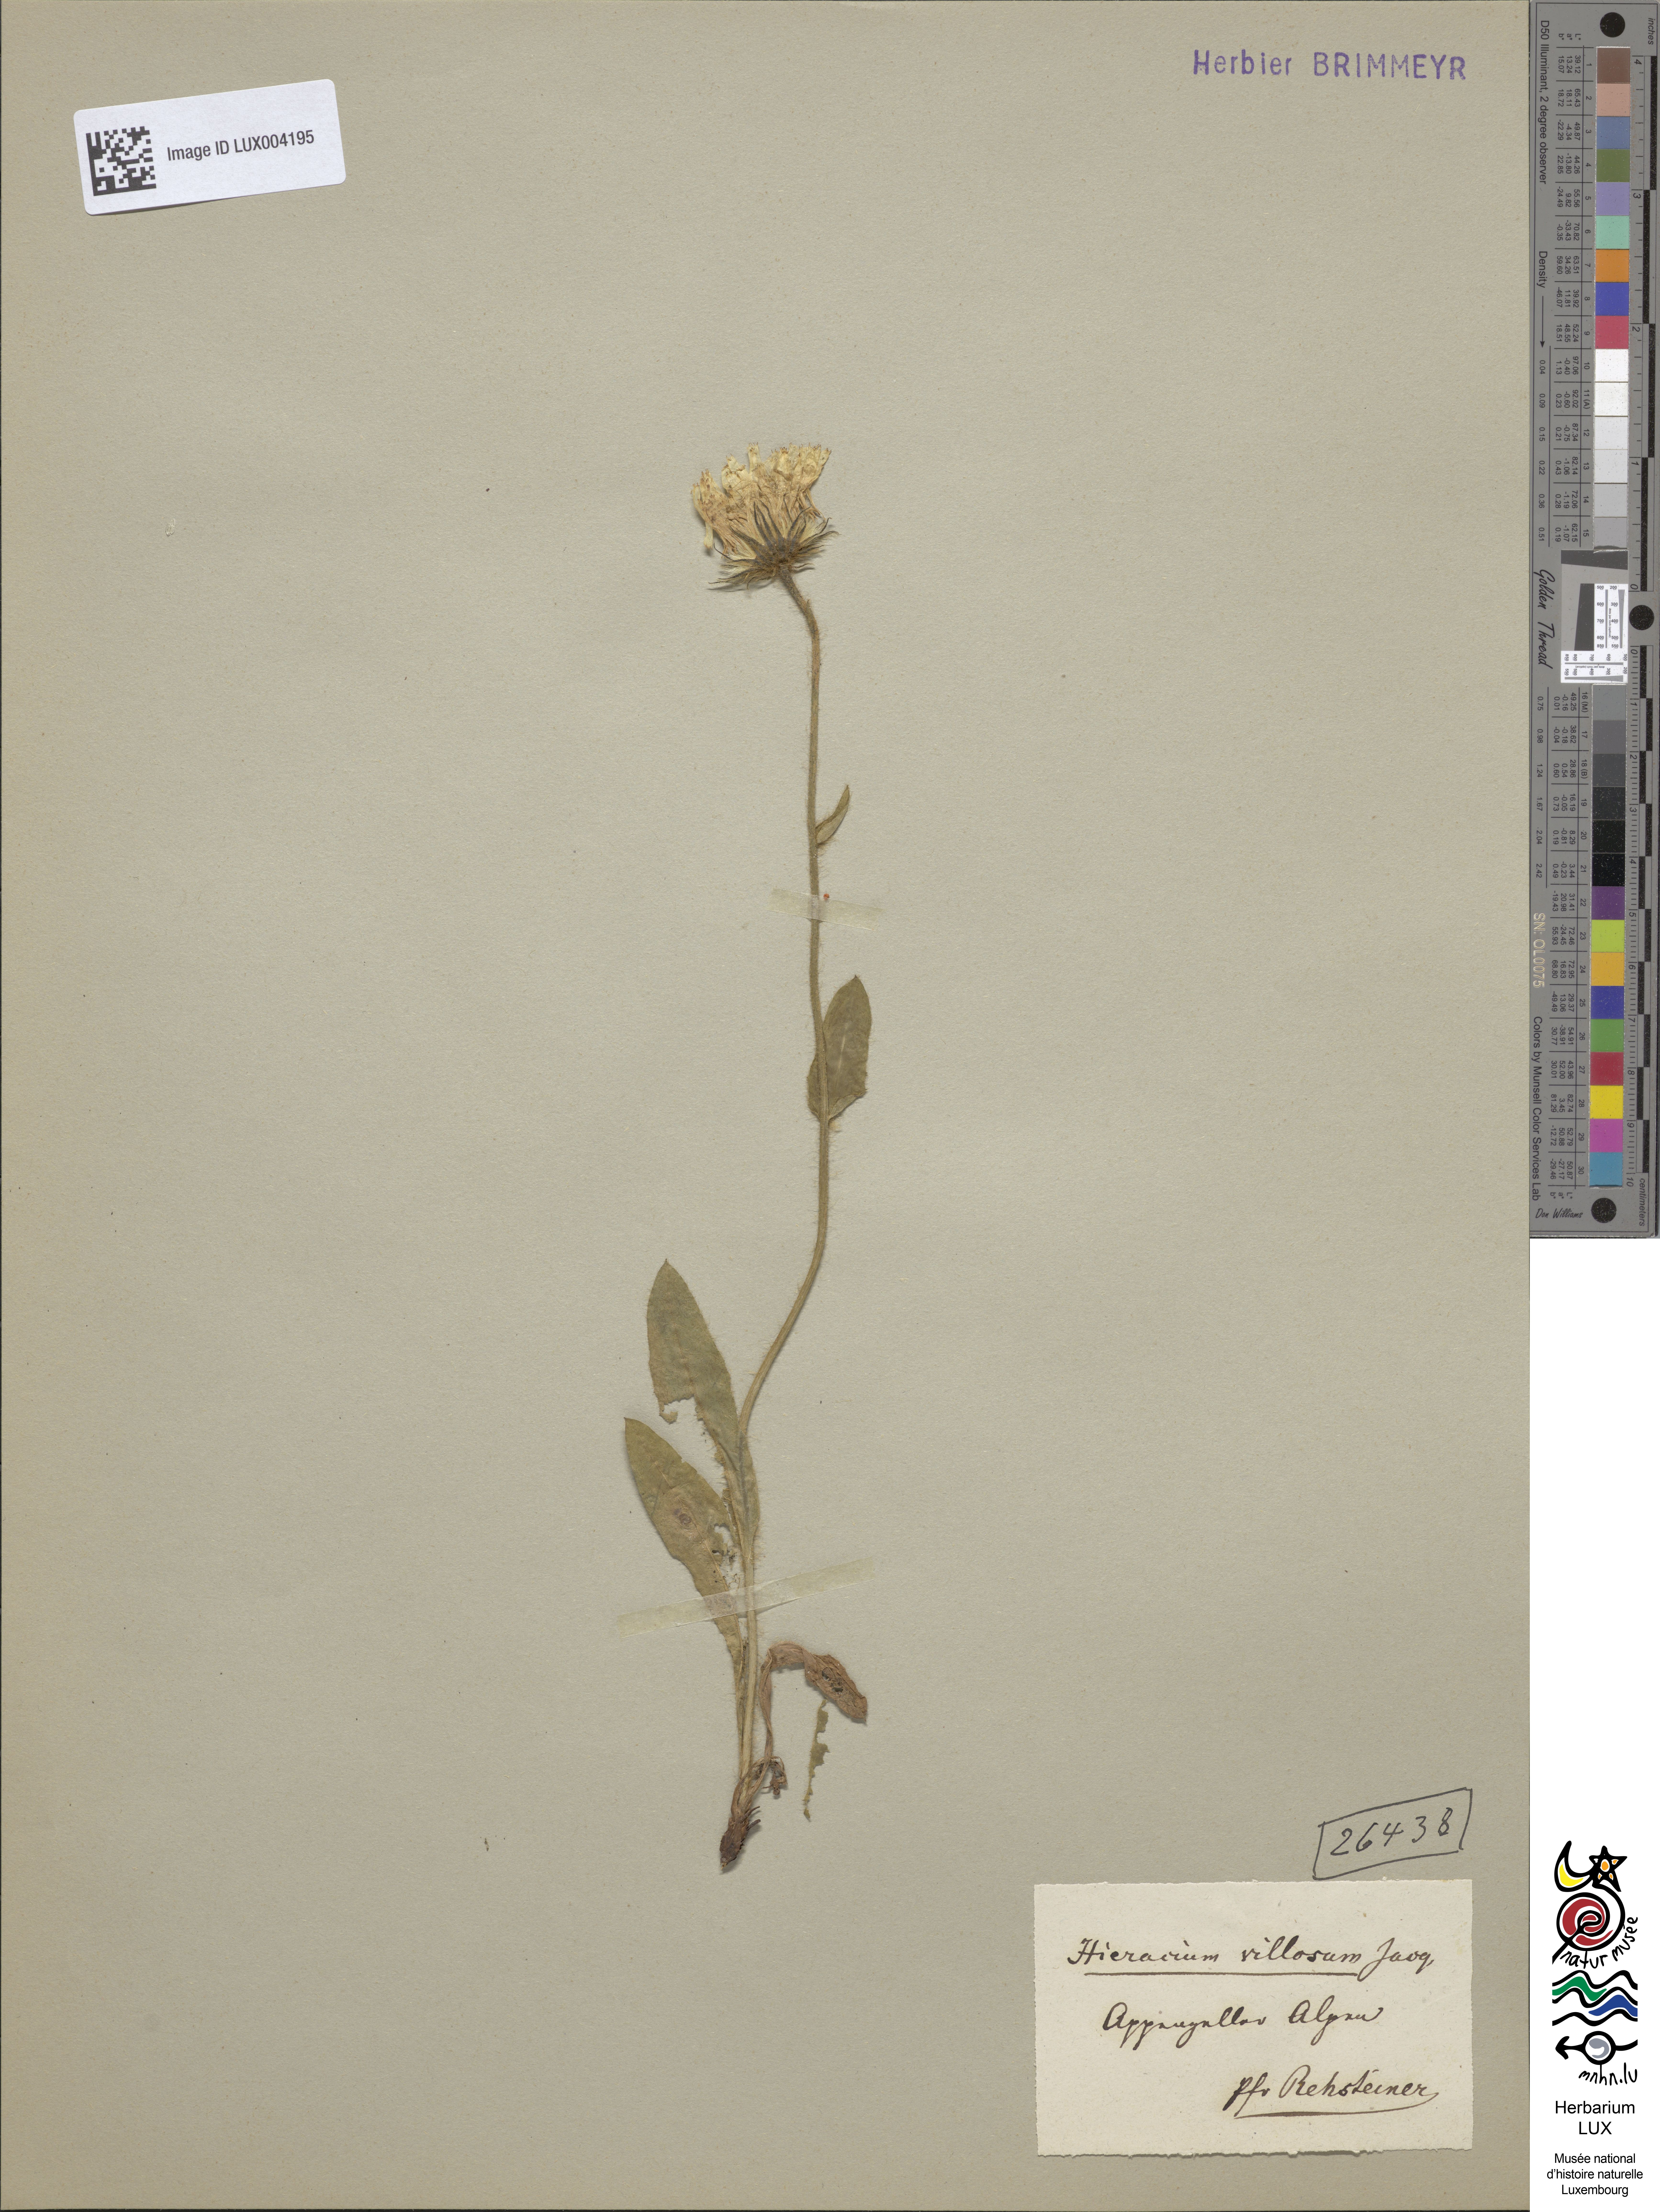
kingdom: Plantae
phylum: Tracheophyta
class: Magnoliopsida
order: Asterales
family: Asteraceae
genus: Hieracium
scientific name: Hieracium villosum
